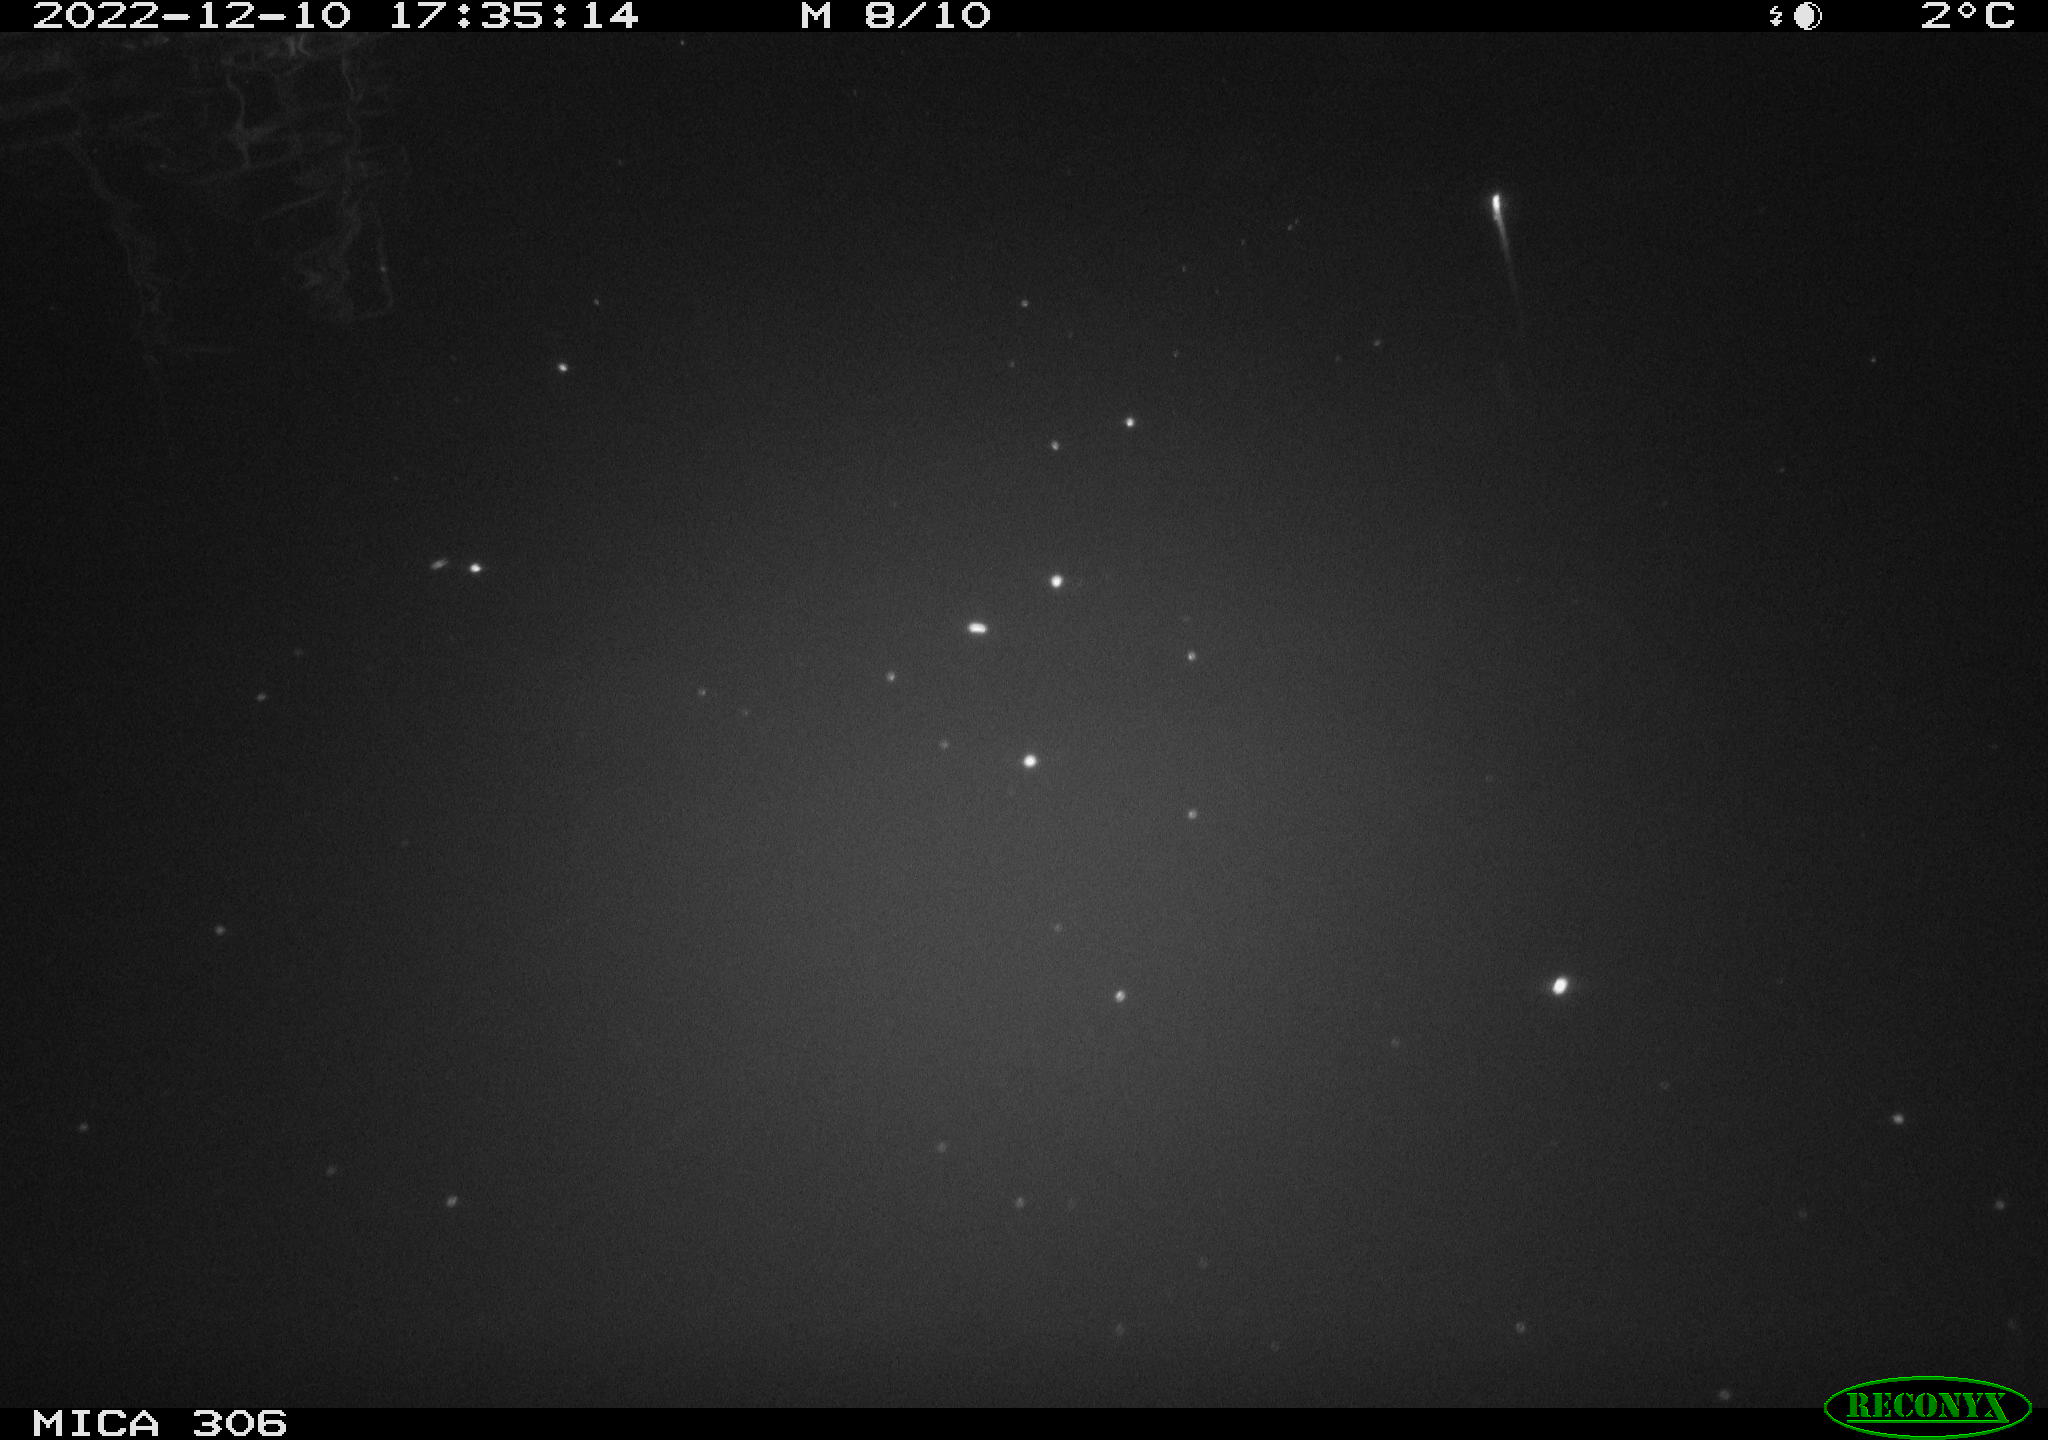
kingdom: Animalia
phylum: Chordata
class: Mammalia
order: Rodentia
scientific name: Rodentia
